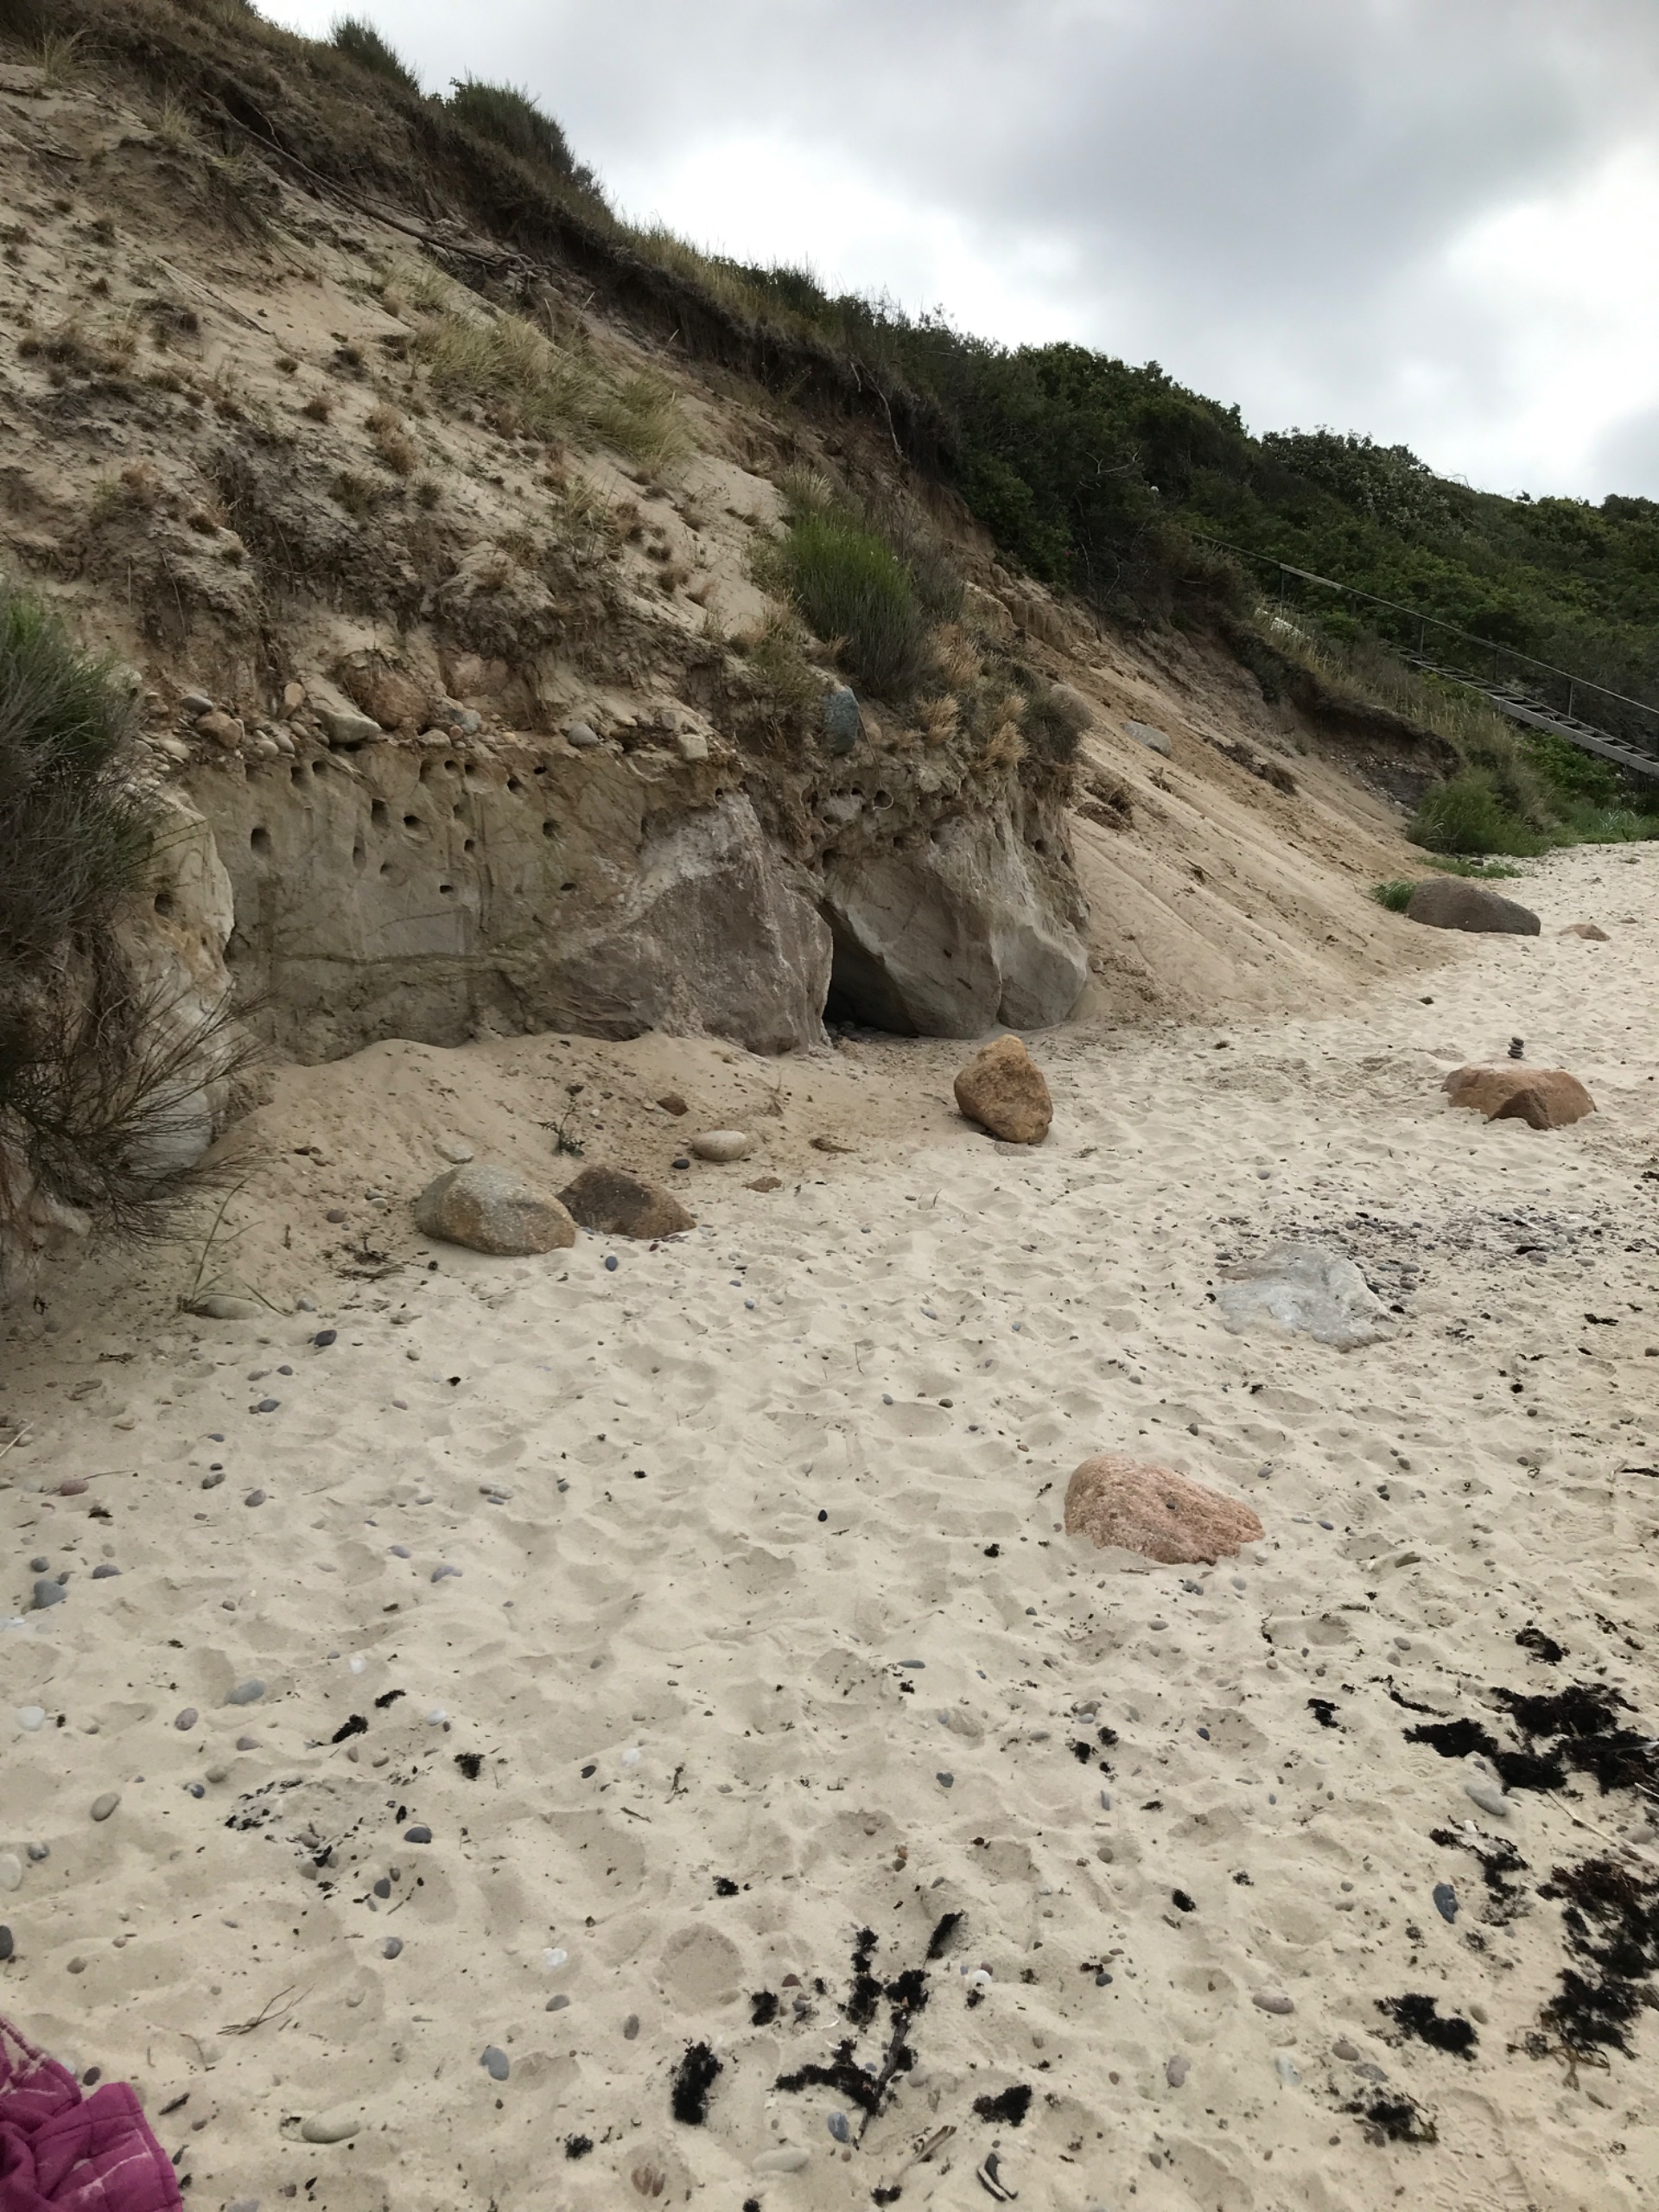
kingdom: Animalia
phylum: Chordata
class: Aves
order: Passeriformes
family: Hirundinidae
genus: Riparia
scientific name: Riparia riparia
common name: Digesvale
